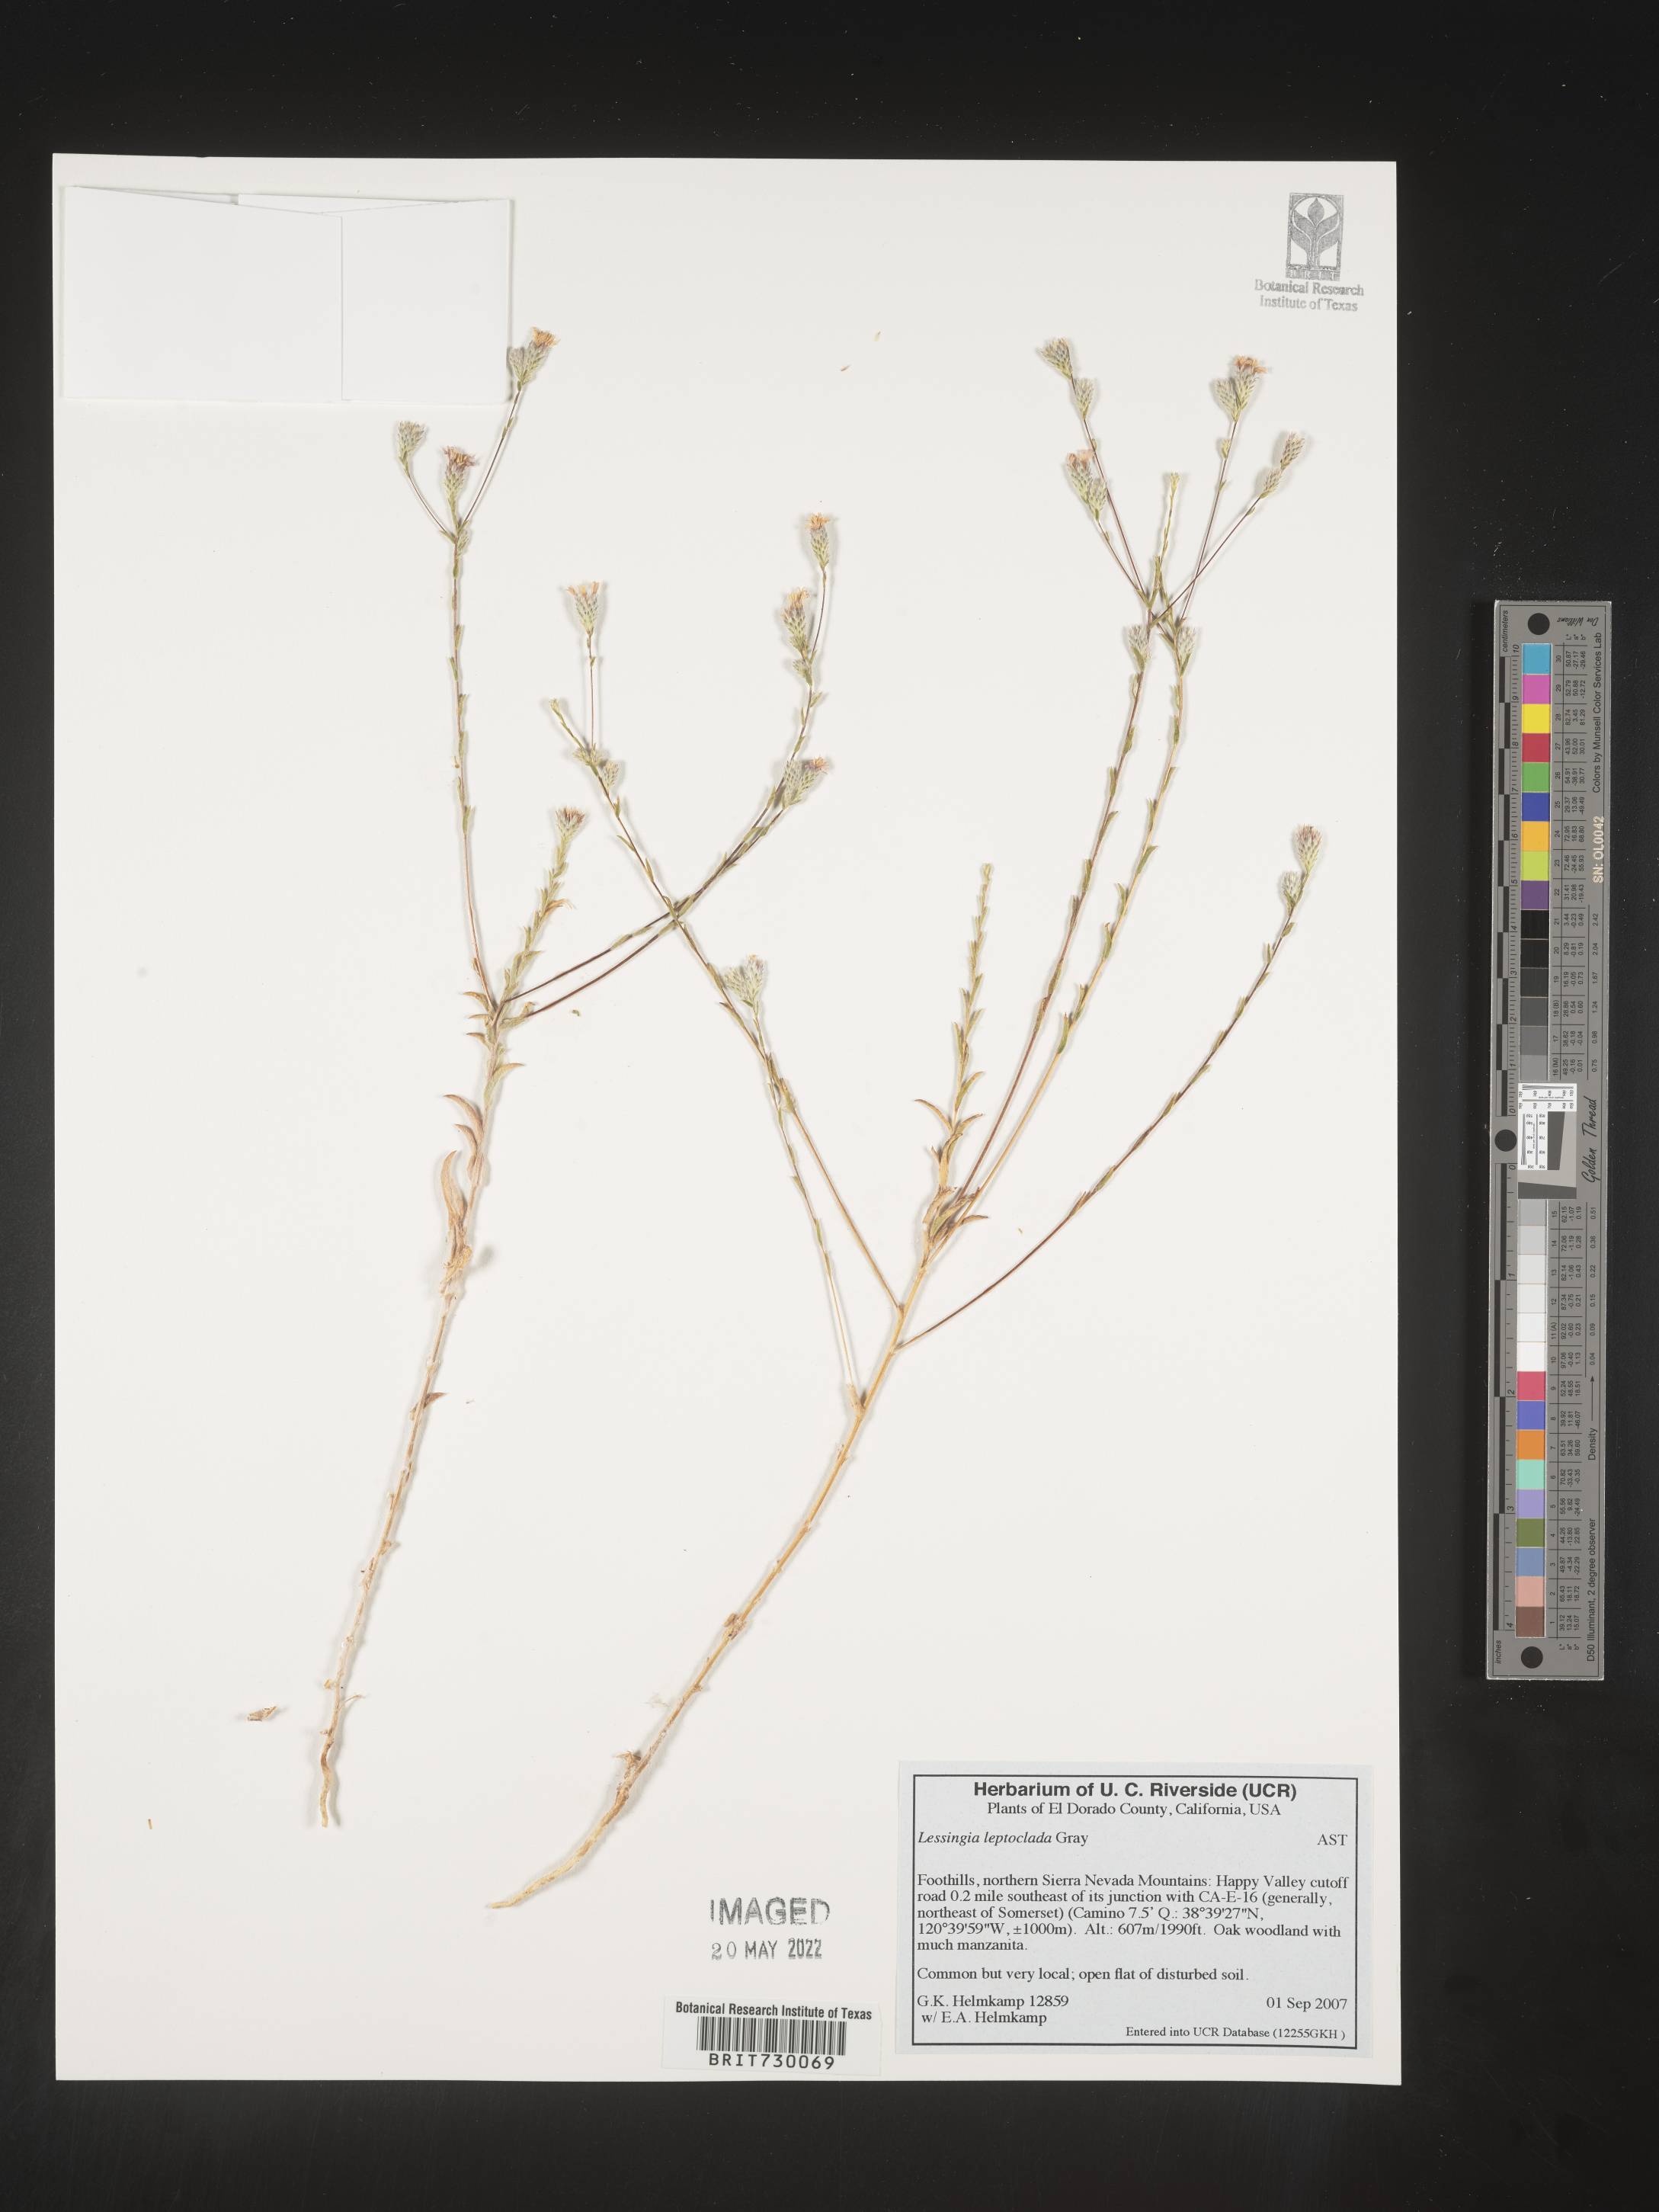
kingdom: Plantae
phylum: Tracheophyta
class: Magnoliopsida
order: Asterales
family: Asteraceae
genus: Lessingia
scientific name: Lessingia
